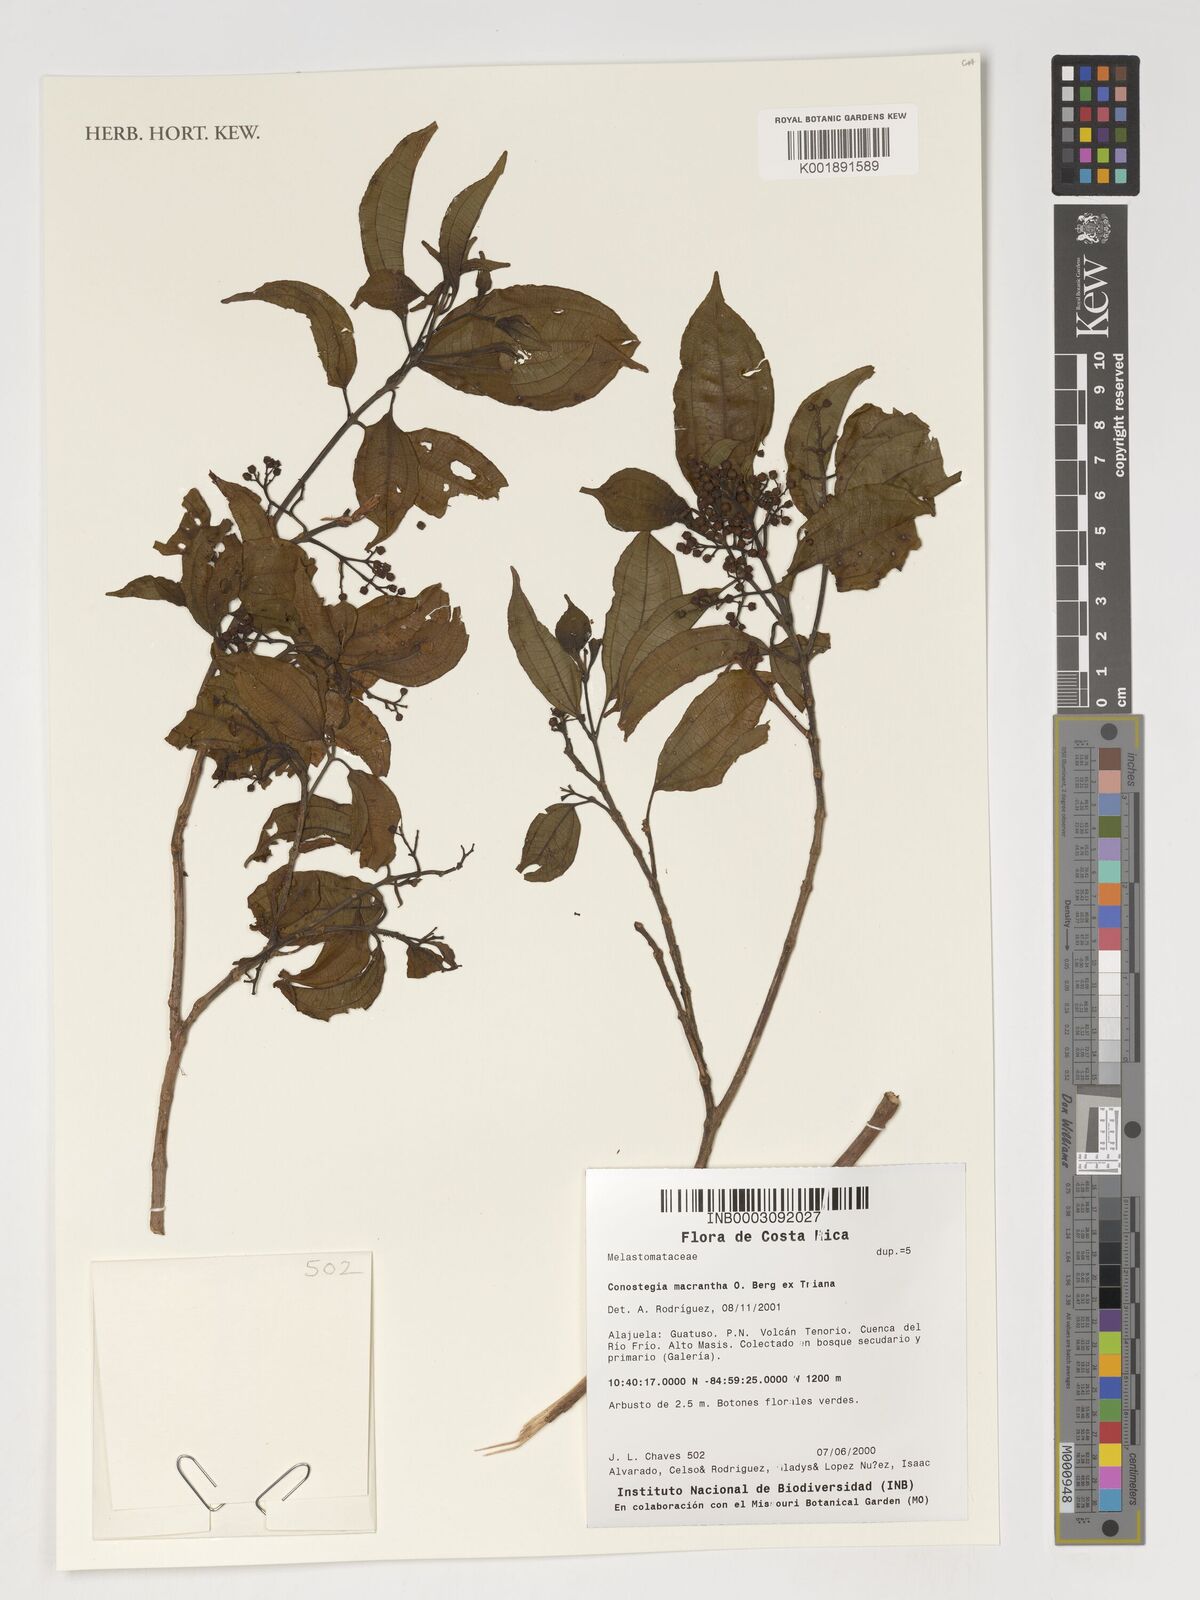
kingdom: Plantae
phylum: Tracheophyta
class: Magnoliopsida
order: Myrtales
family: Melastomataceae
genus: Miconia
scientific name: Miconia conomacrantha
